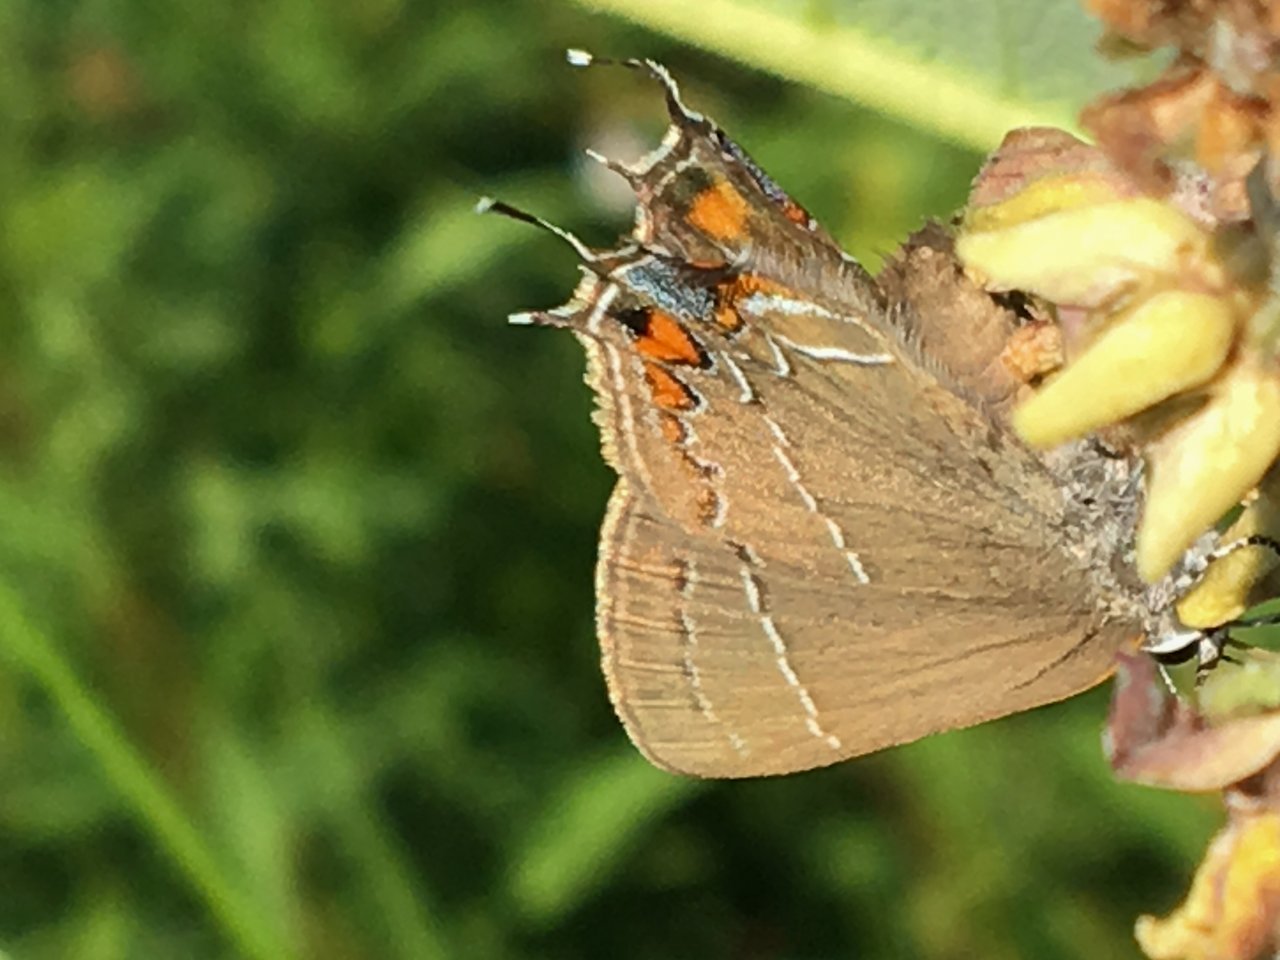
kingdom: Animalia
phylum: Arthropoda
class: Insecta
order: Lepidoptera
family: Lycaenidae
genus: Fixsenia
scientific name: Fixsenia favonius
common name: Oak Hairstreak
